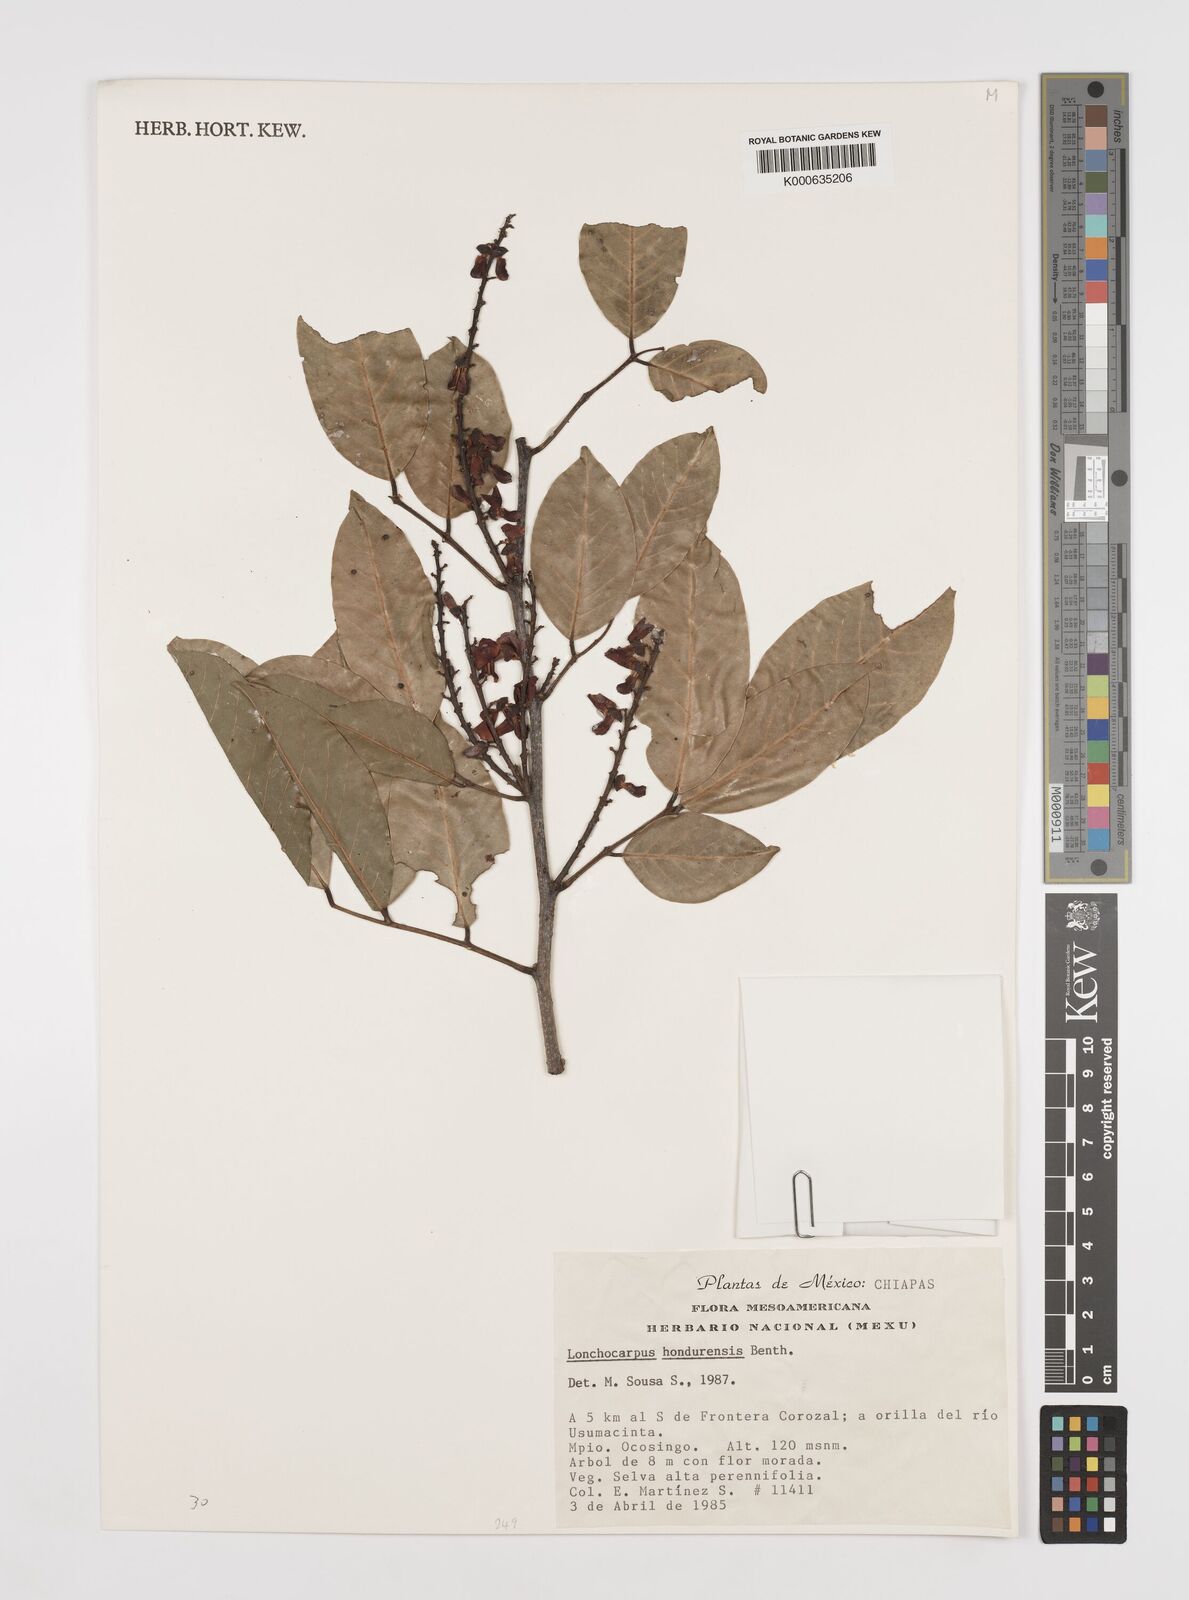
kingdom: Plantae
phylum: Tracheophyta
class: Magnoliopsida
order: Fabales
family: Fabaceae
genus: Lonchocarpus
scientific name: Lonchocarpus hondurensis
